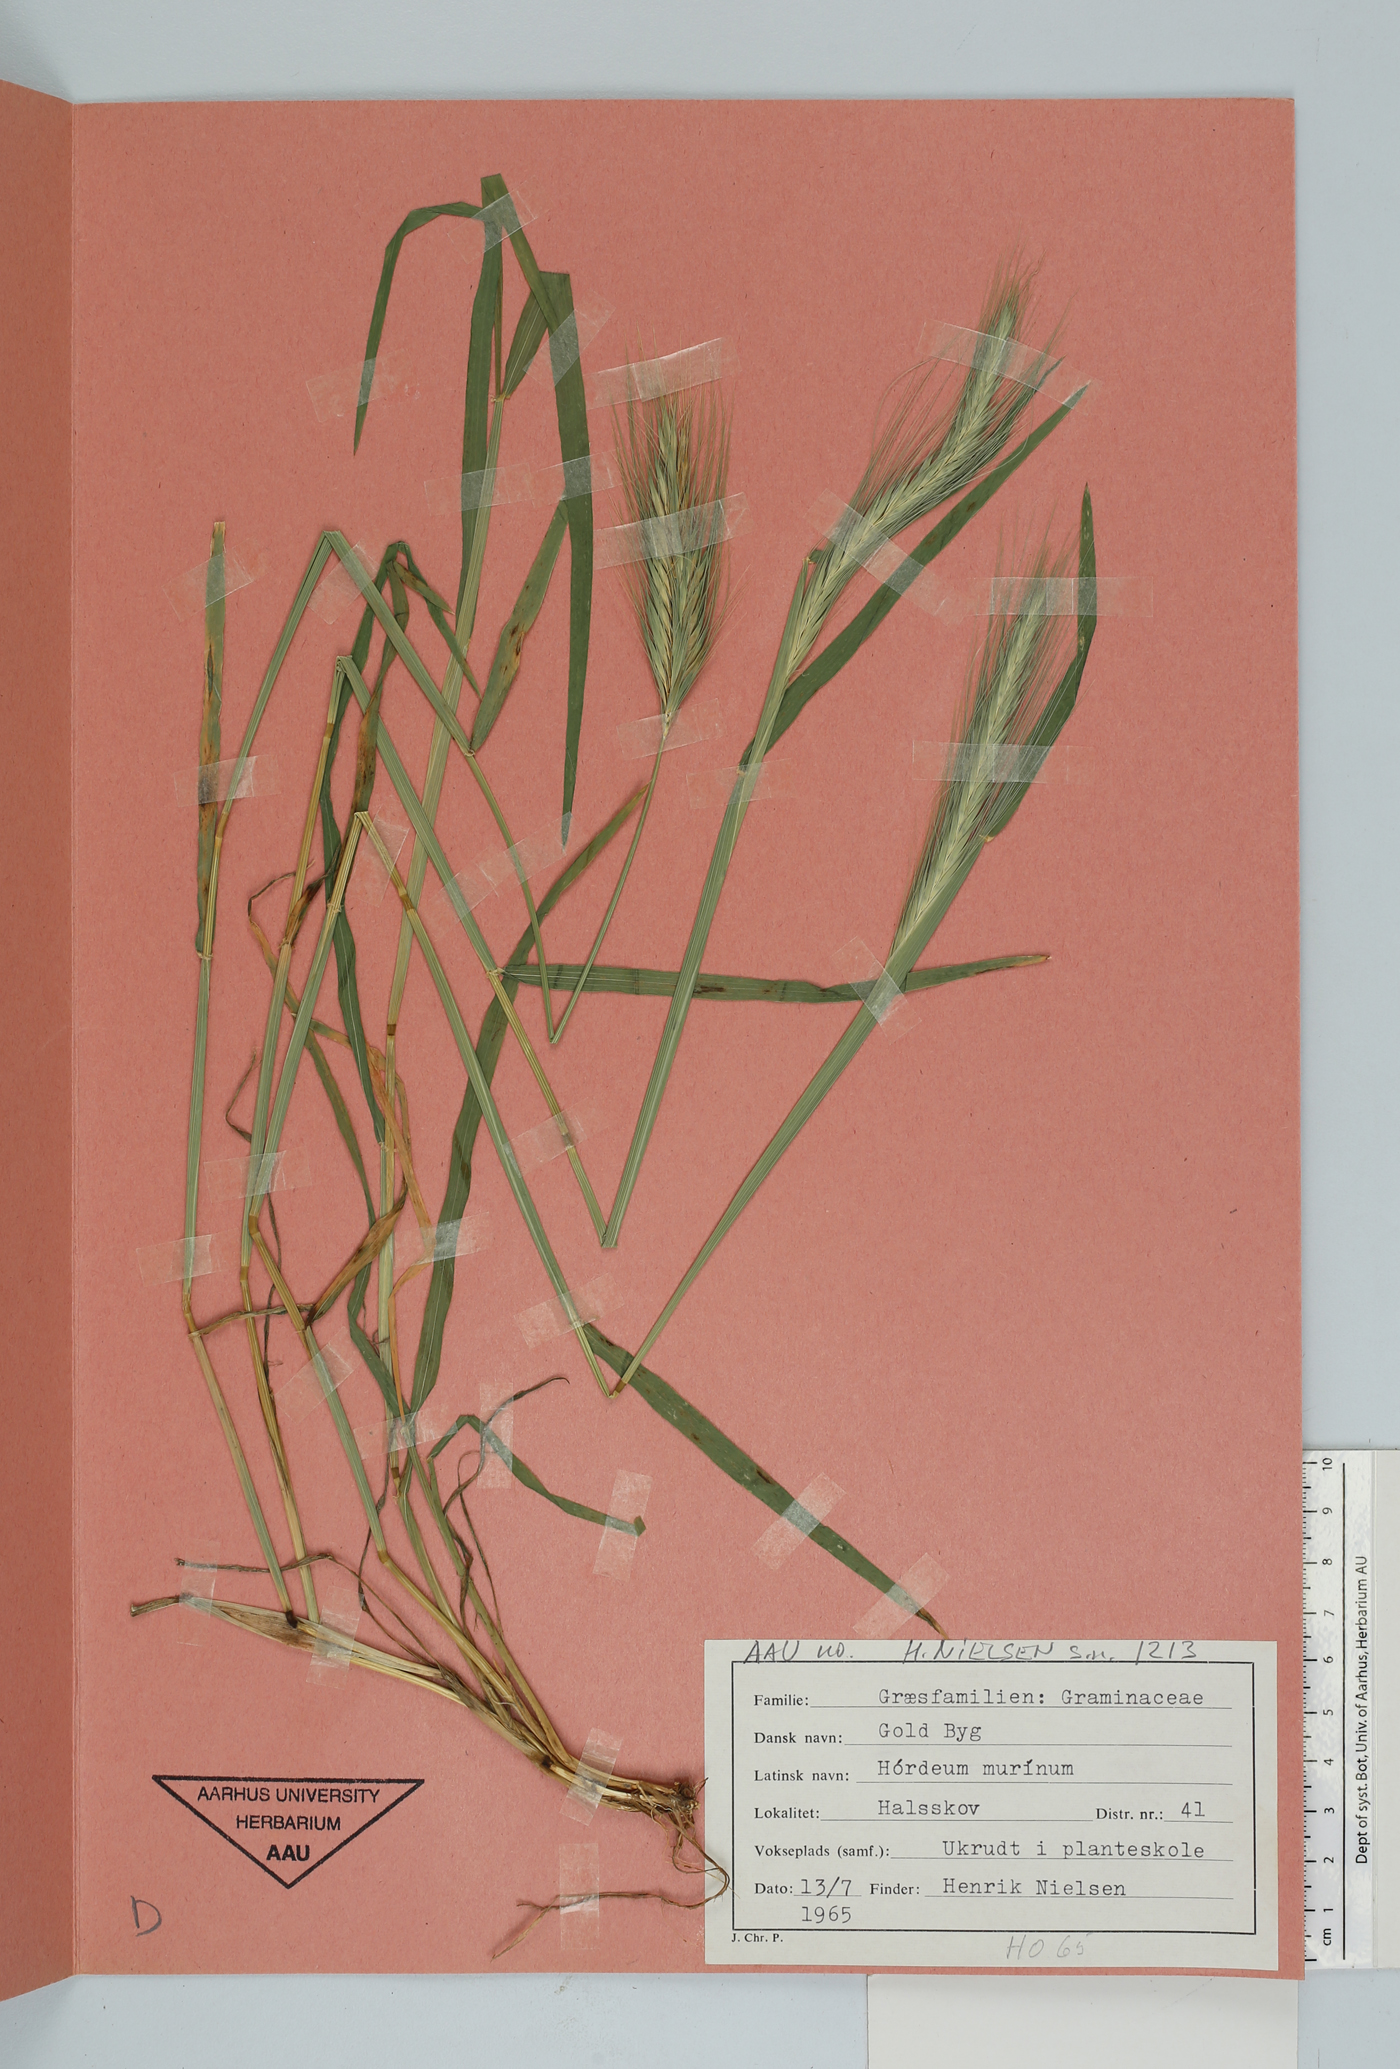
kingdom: Plantae
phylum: Tracheophyta
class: Liliopsida
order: Poales
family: Poaceae
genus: Hordeum
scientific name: Hordeum murinum
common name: Wall barley
